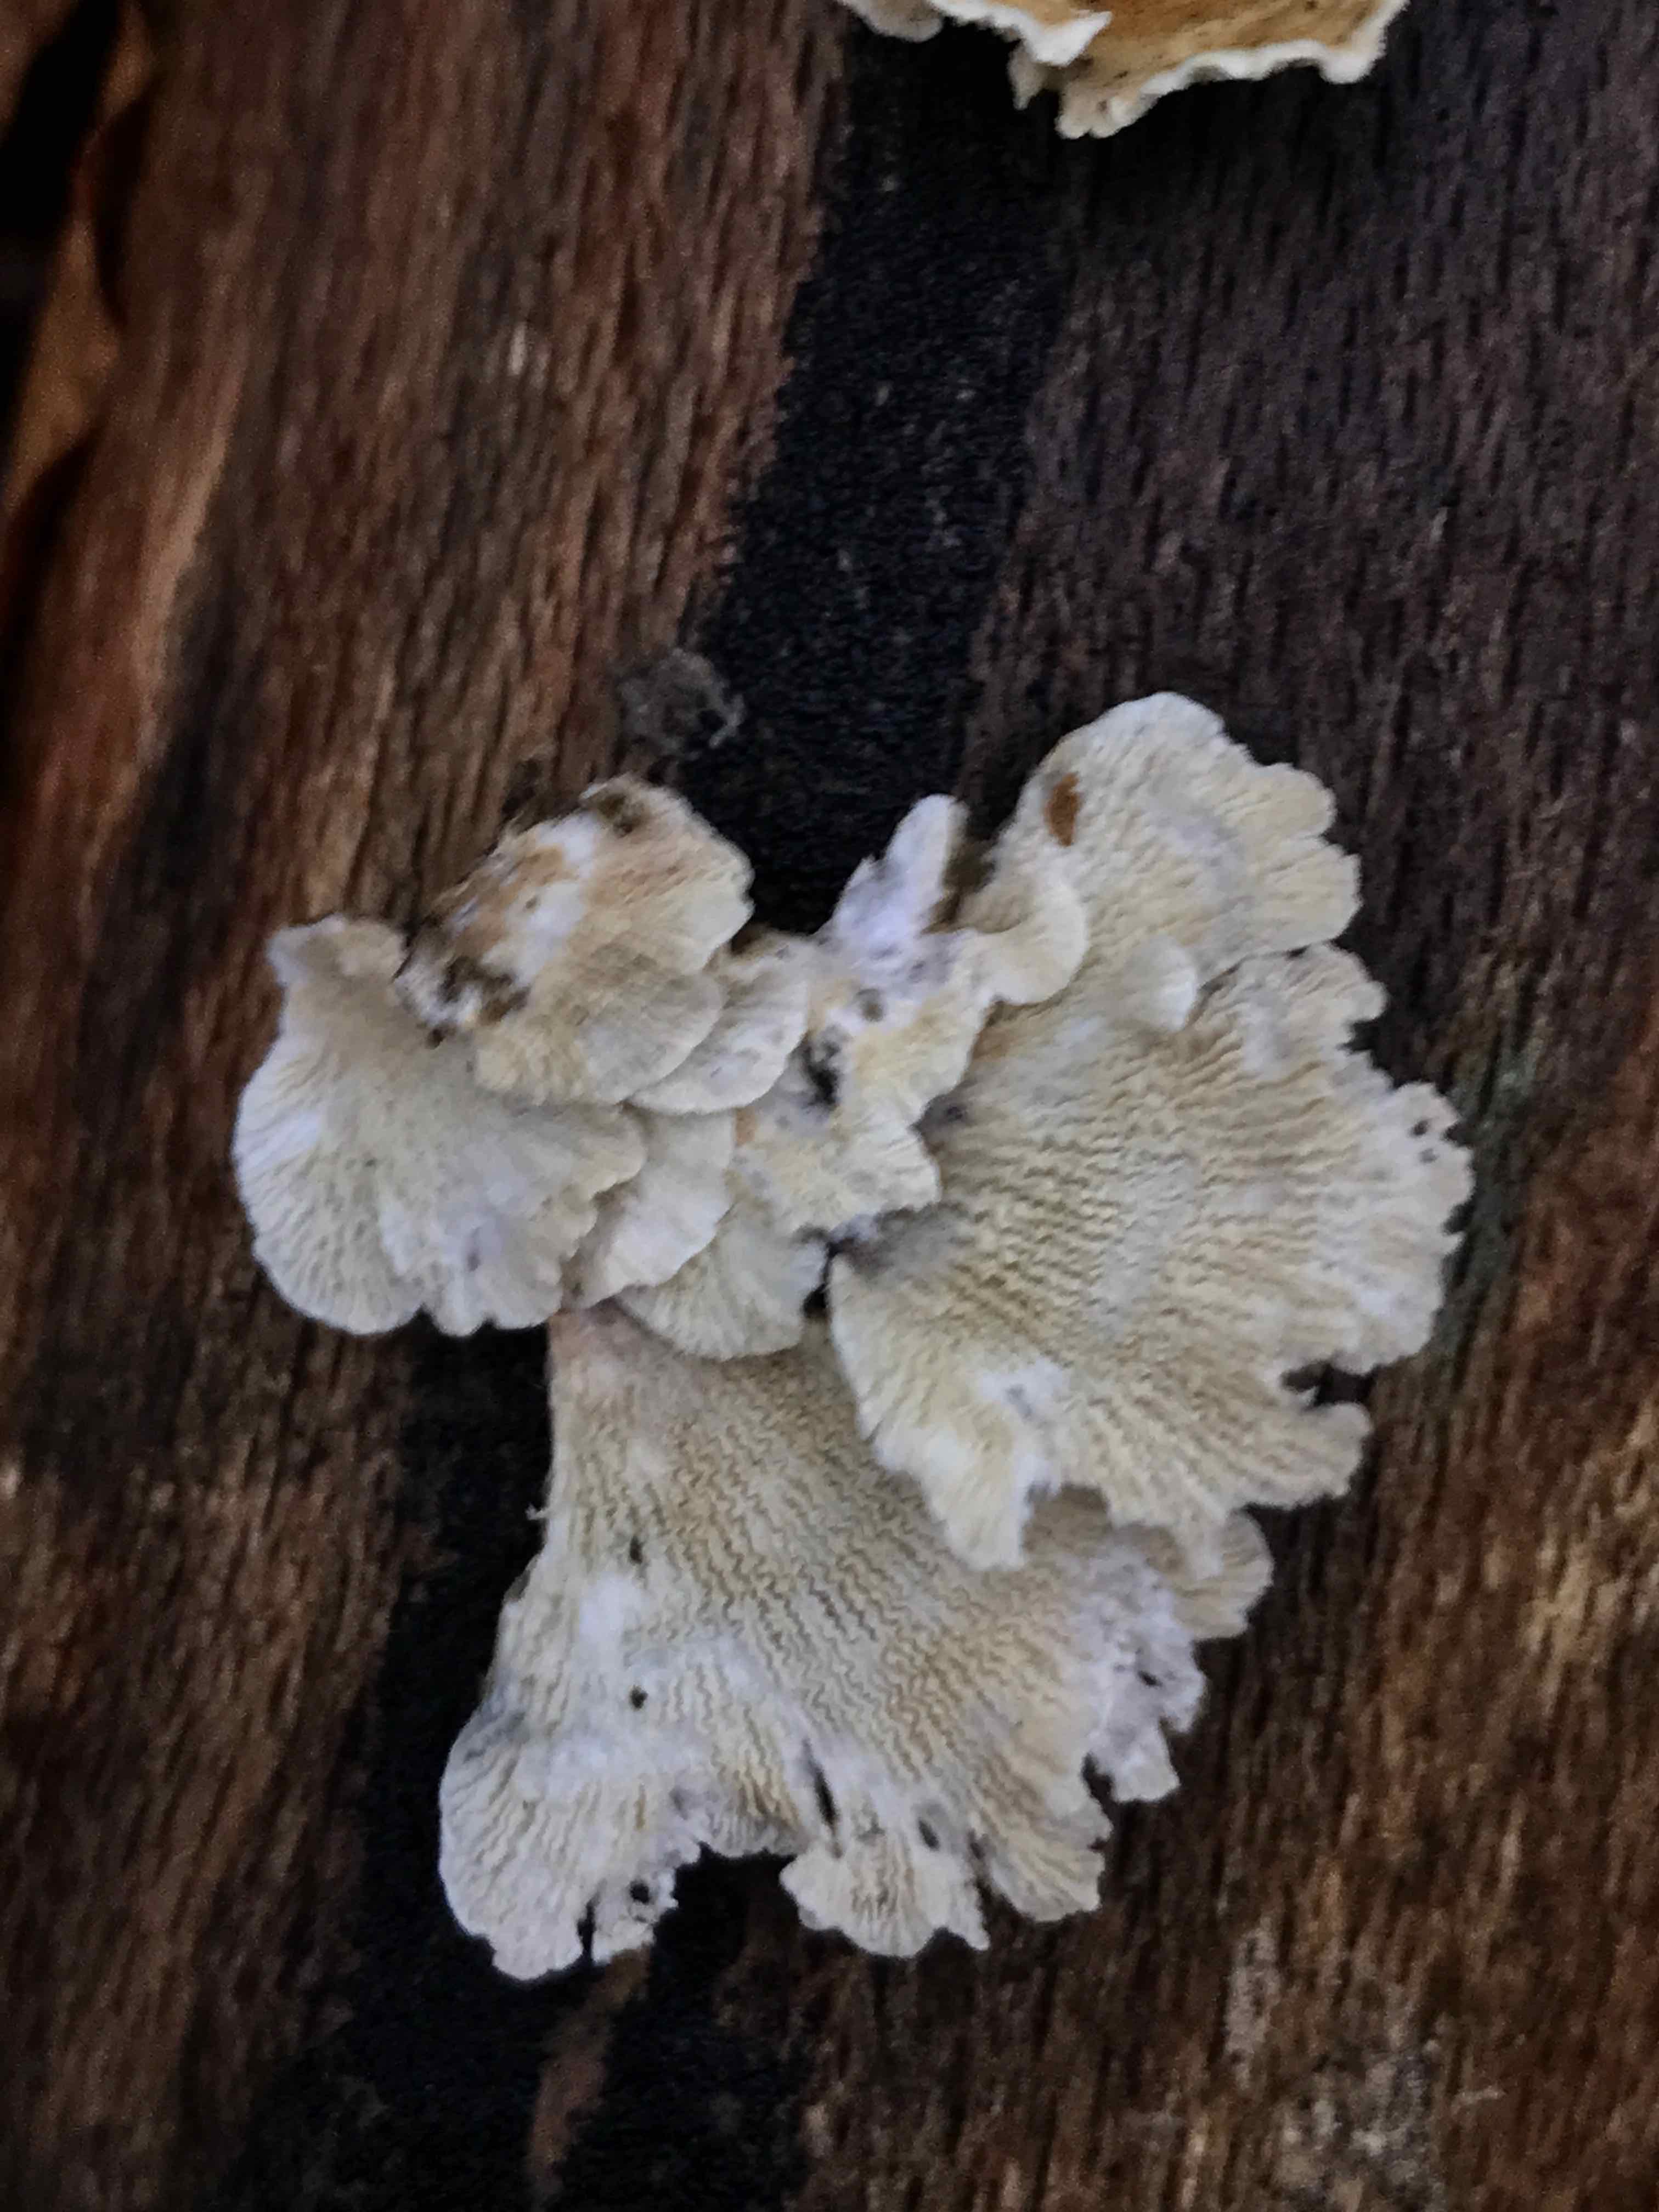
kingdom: Fungi
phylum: Basidiomycota
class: Agaricomycetes
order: Amylocorticiales
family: Amylocorticiaceae
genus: Plicaturopsis
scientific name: Plicaturopsis crispa
